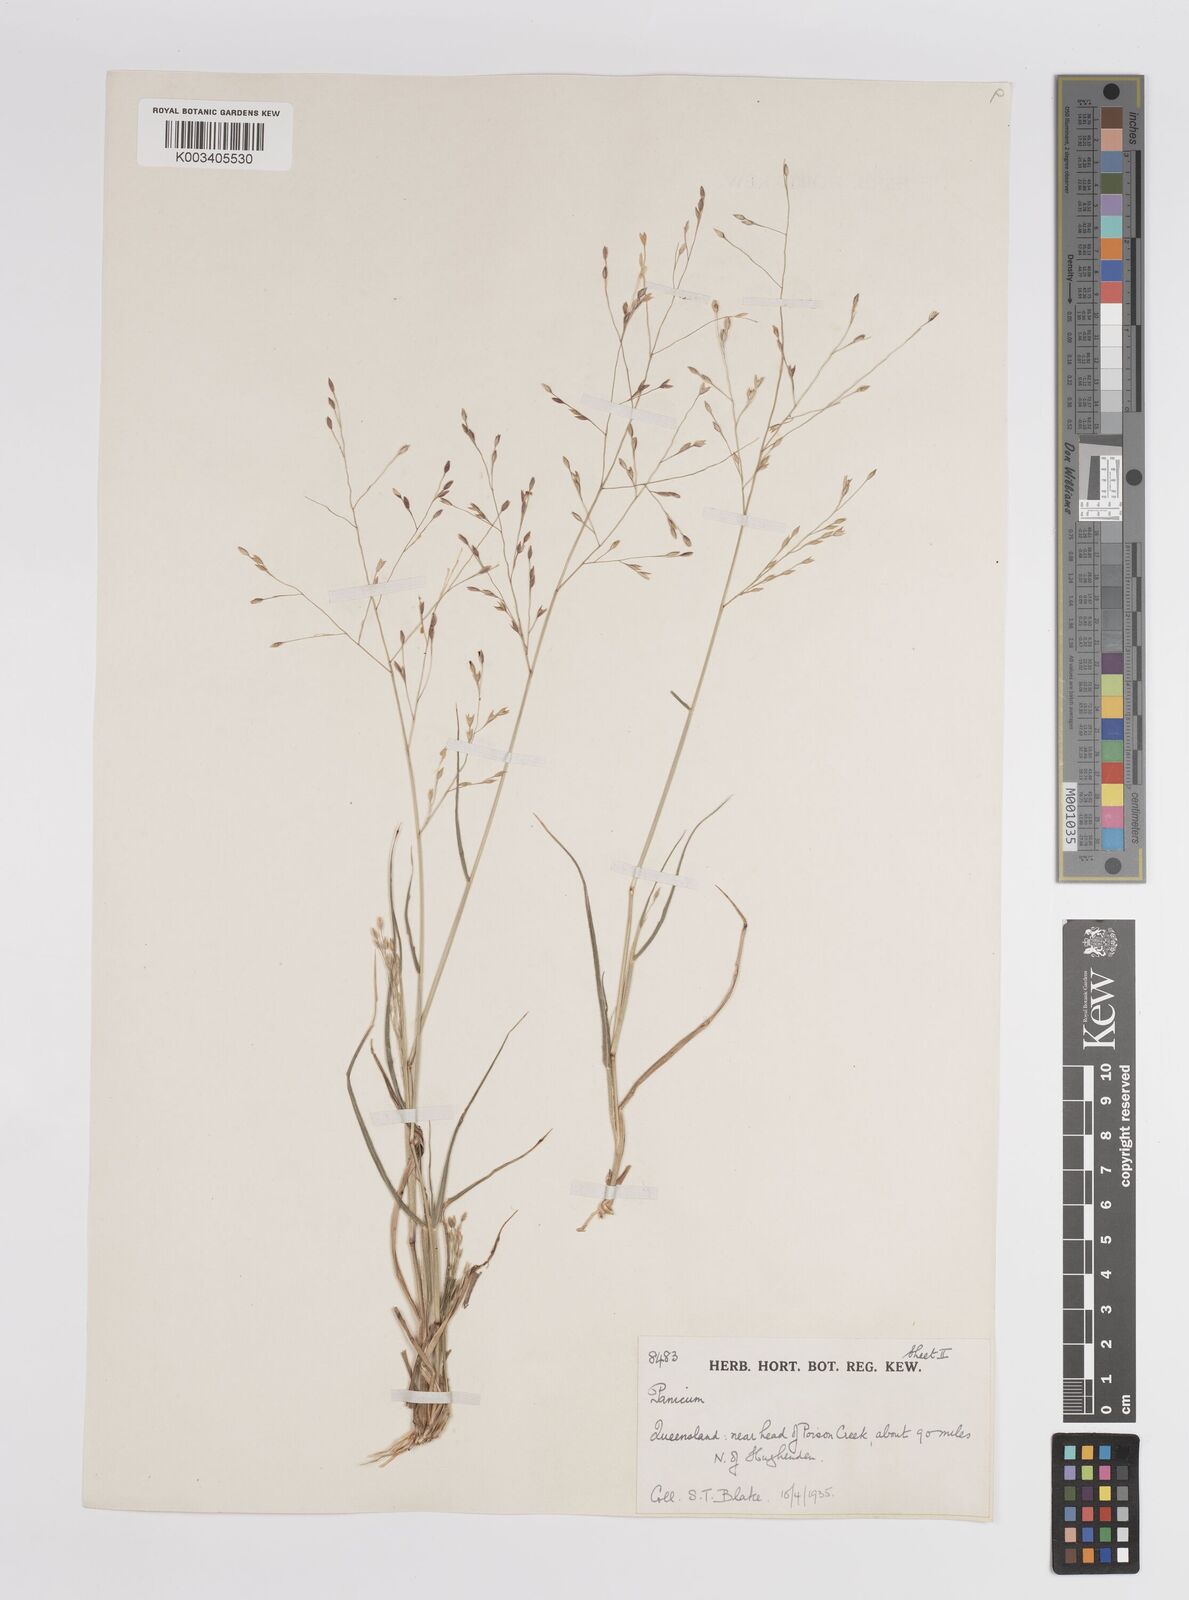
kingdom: Plantae
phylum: Tracheophyta
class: Liliopsida
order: Poales
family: Poaceae
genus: Panicum
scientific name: Panicum
